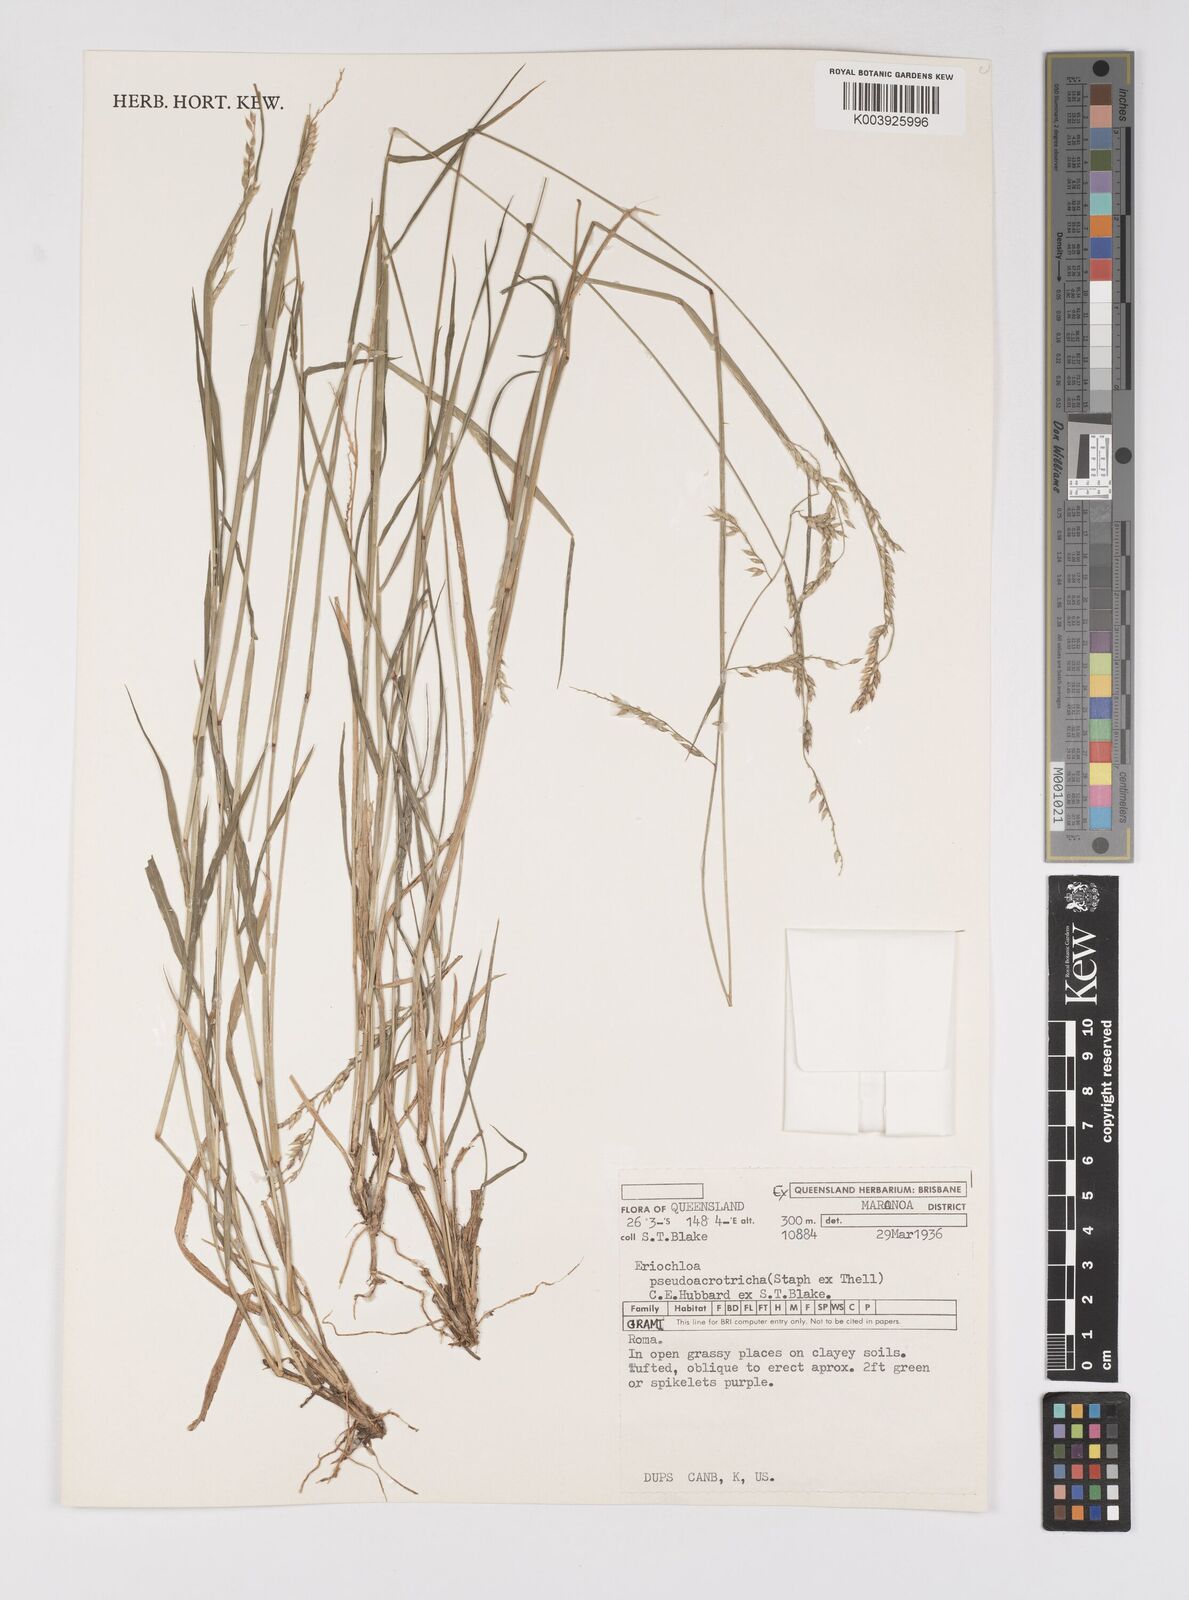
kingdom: Plantae
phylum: Tracheophyta
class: Liliopsida
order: Poales
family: Poaceae
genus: Eriochloa
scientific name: Eriochloa pseudoacrotricha
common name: Perennial cup-grass
